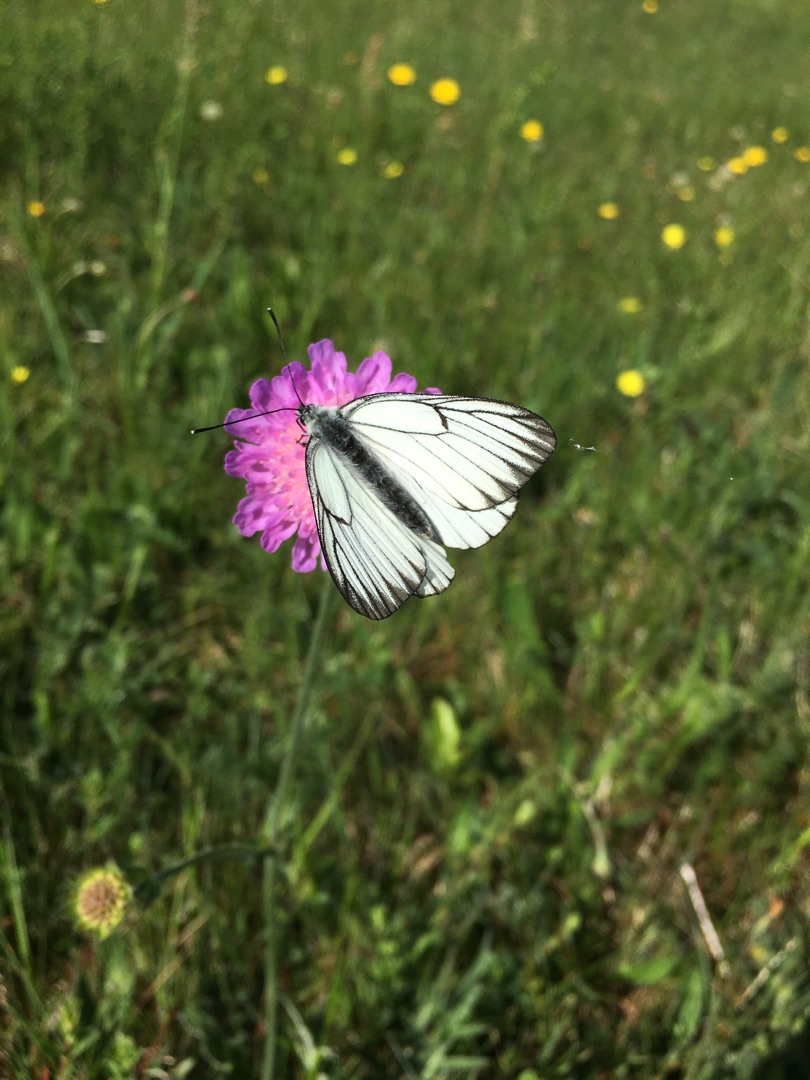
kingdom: Animalia
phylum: Arthropoda
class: Insecta
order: Lepidoptera
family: Pieridae
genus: Aporia
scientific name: Aporia crataegi
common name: Sortåret hvidvinge
